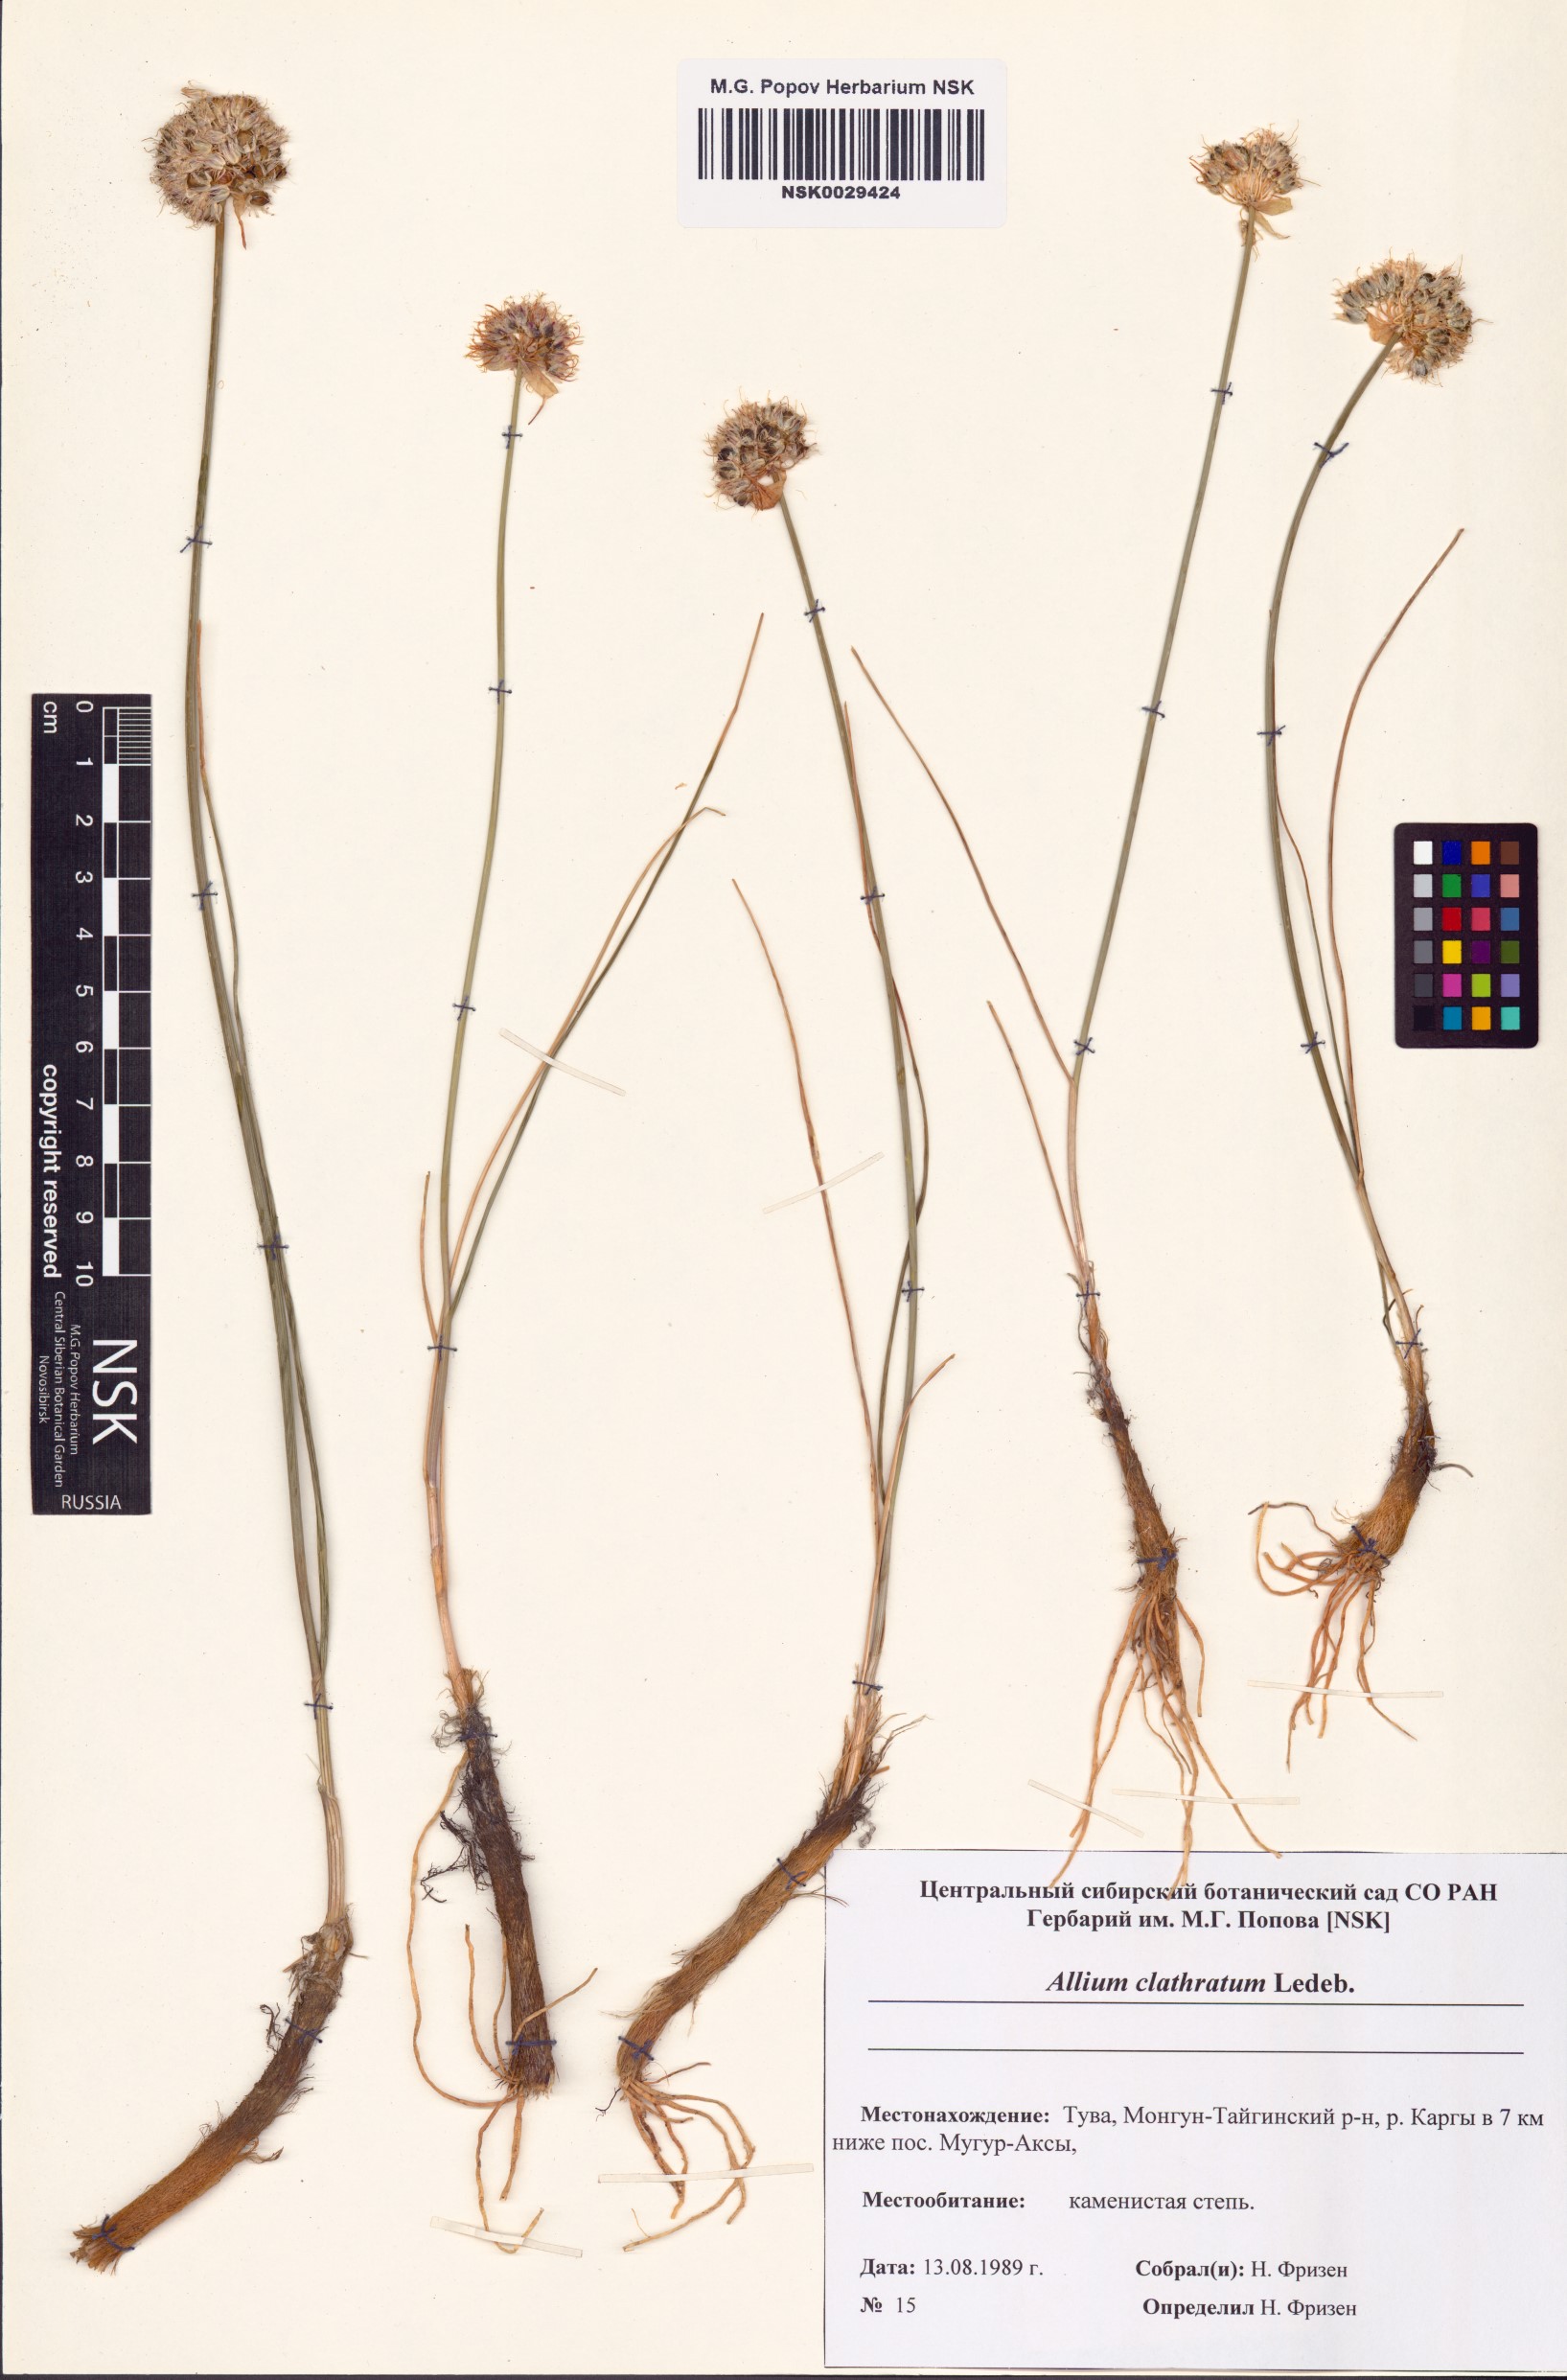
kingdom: Plantae
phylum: Tracheophyta
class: Liliopsida
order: Asparagales
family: Amaryllidaceae
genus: Allium
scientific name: Allium clathratum
